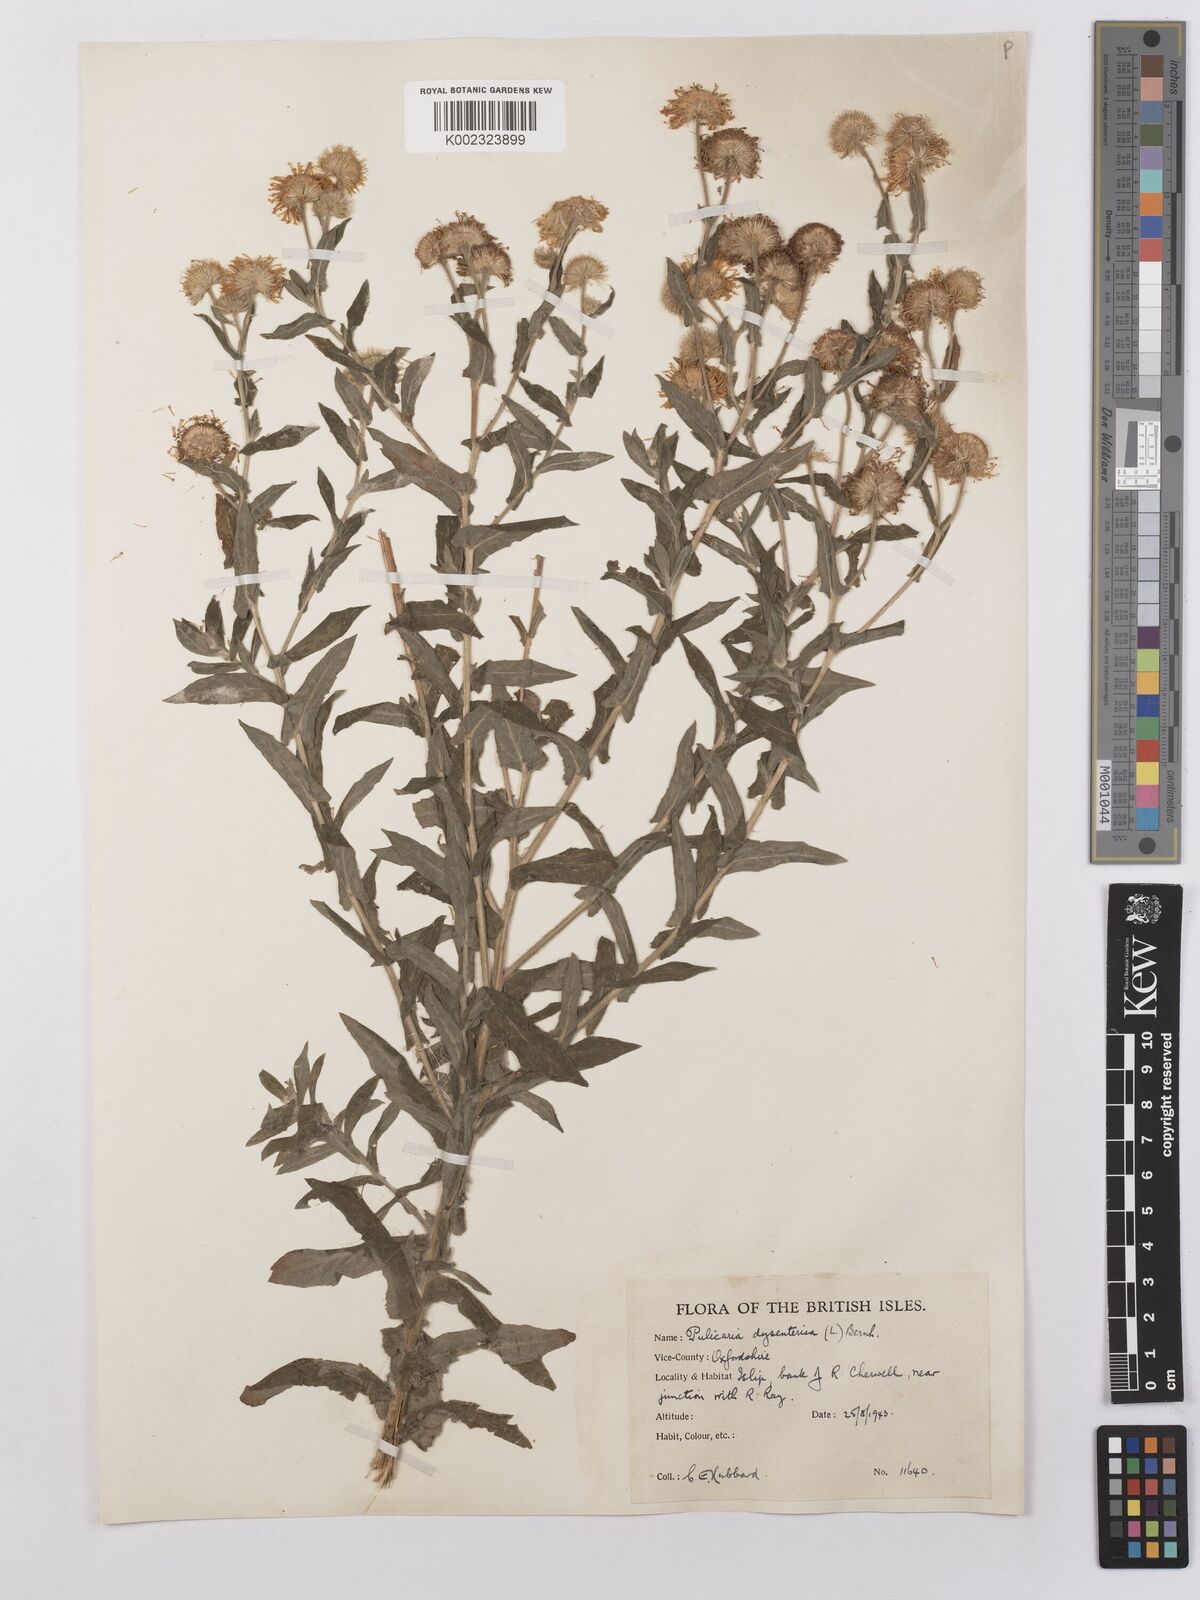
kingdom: Plantae
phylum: Tracheophyta
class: Magnoliopsida
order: Asterales
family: Asteraceae
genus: Pulicaria
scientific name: Pulicaria dysenterica
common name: Common fleabane
